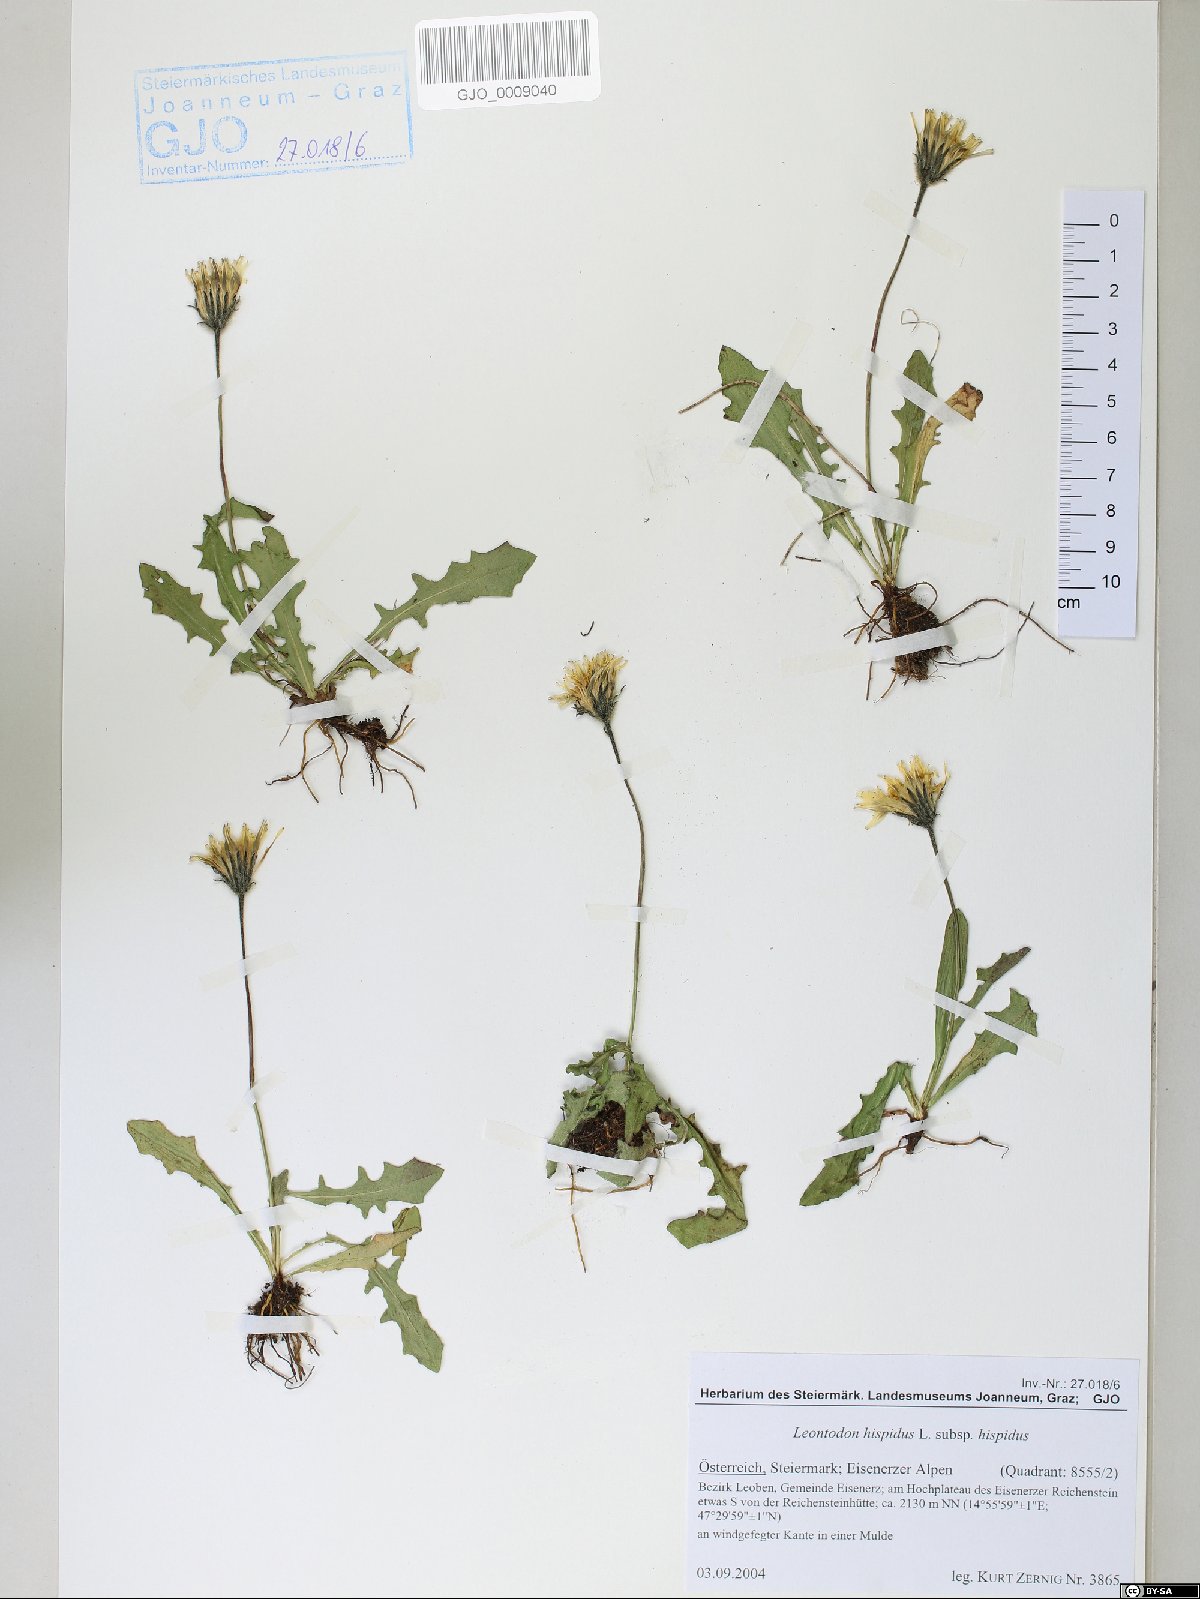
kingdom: Plantae
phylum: Tracheophyta
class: Magnoliopsida
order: Asterales
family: Asteraceae
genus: Leontodon
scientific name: Leontodon hispidus
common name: Rough hawkbit
